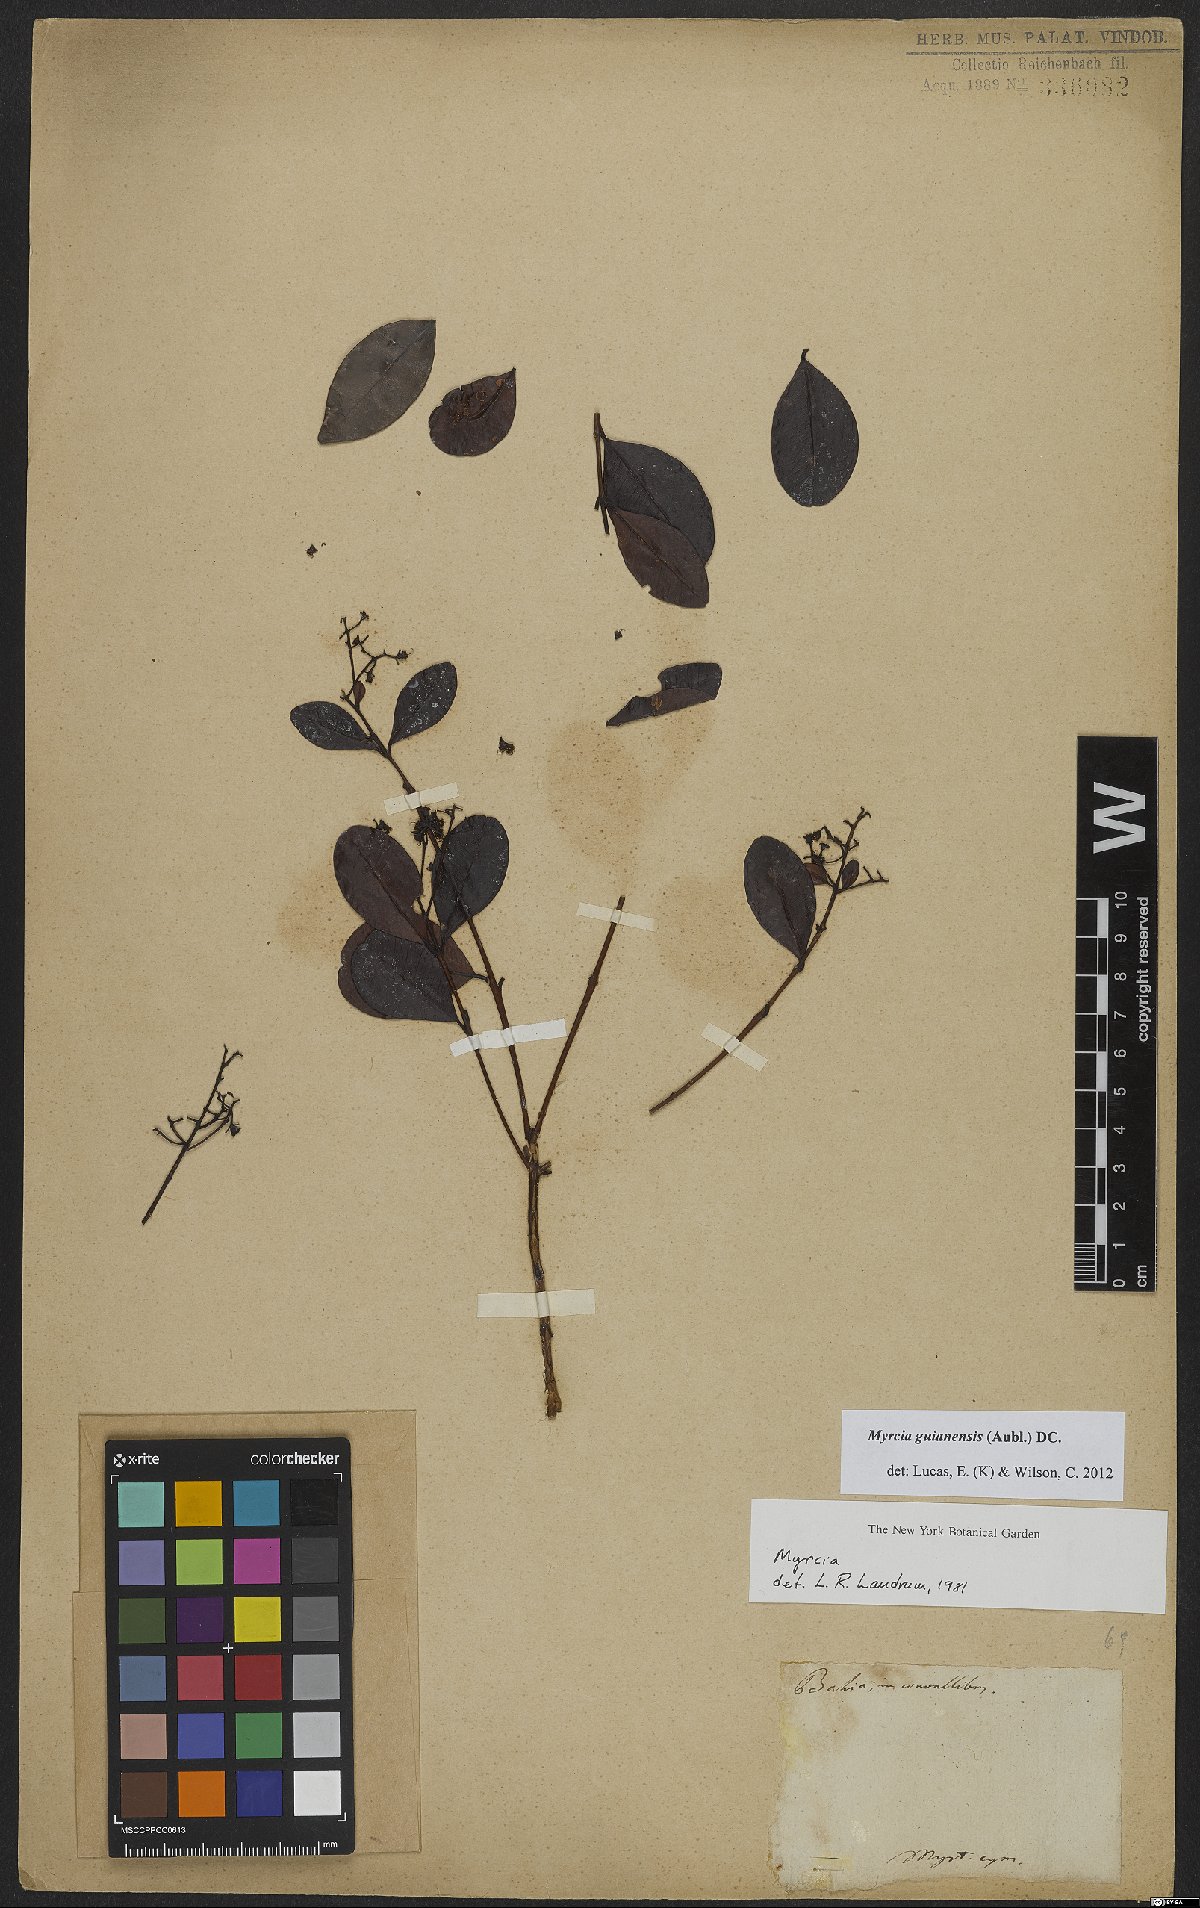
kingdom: Plantae
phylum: Tracheophyta
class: Magnoliopsida
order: Myrtales
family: Myrtaceae
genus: Myrcia
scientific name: Myrcia guianensis
